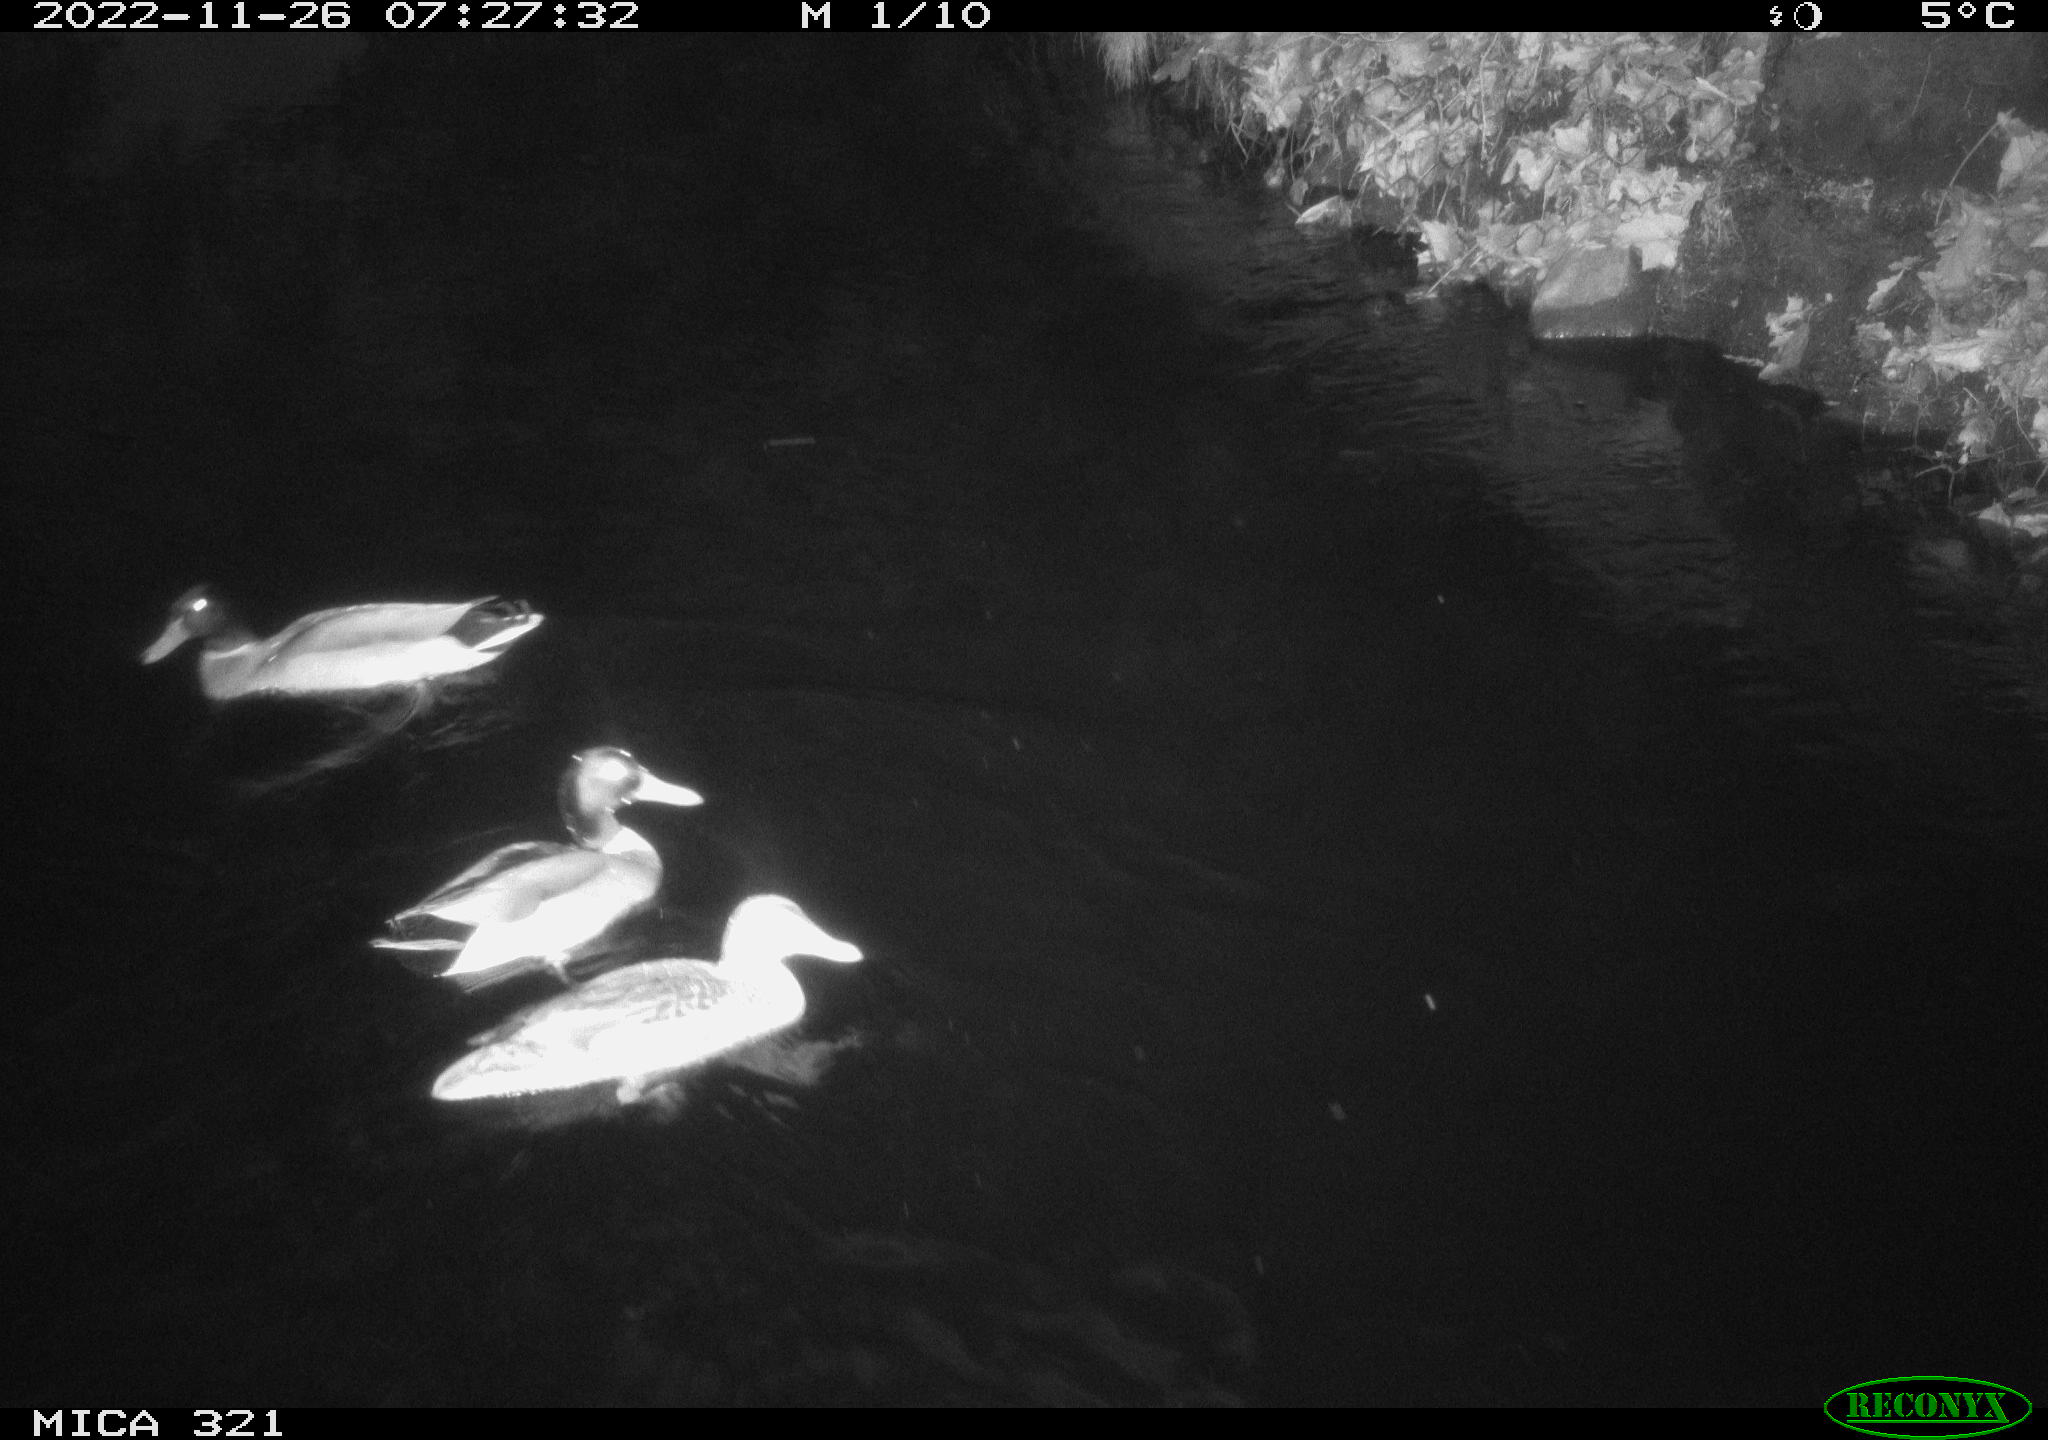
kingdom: Animalia
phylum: Chordata
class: Aves
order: Anseriformes
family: Anatidae
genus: Anas
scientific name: Anas
